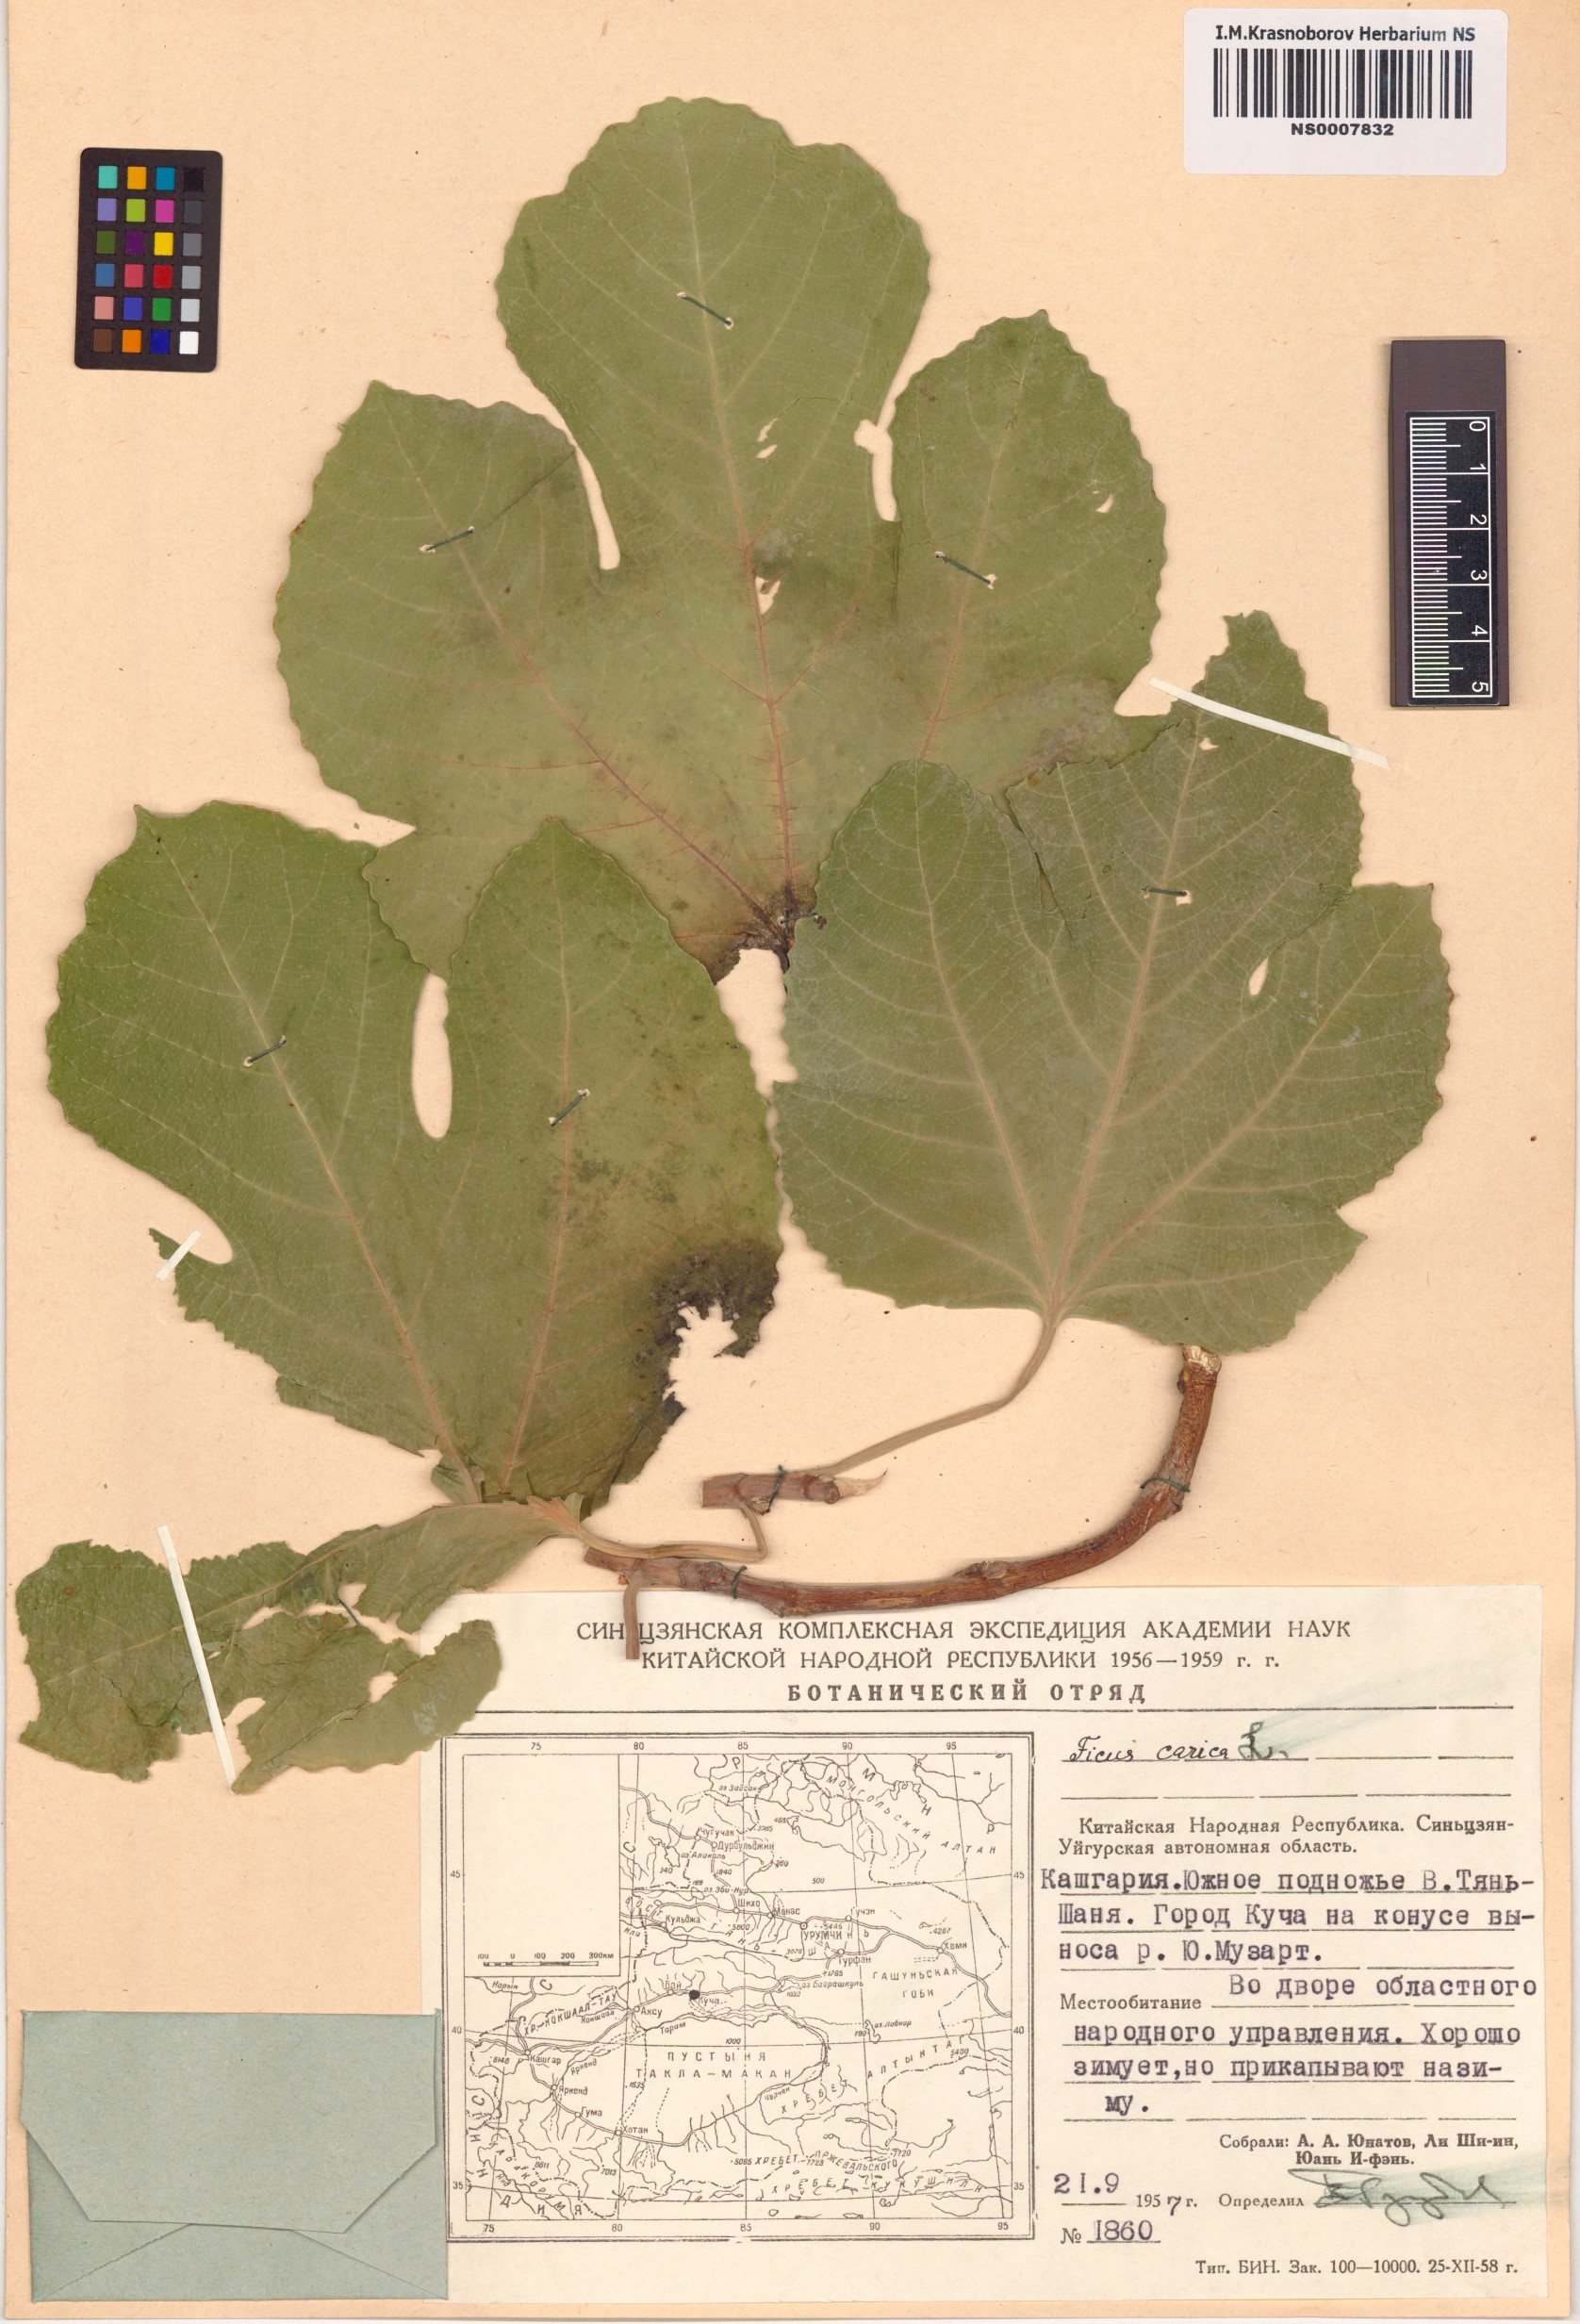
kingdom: Plantae
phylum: Tracheophyta
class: Magnoliopsida
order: Rosales
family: Moraceae
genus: Ficus
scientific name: Ficus carica
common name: Fig
